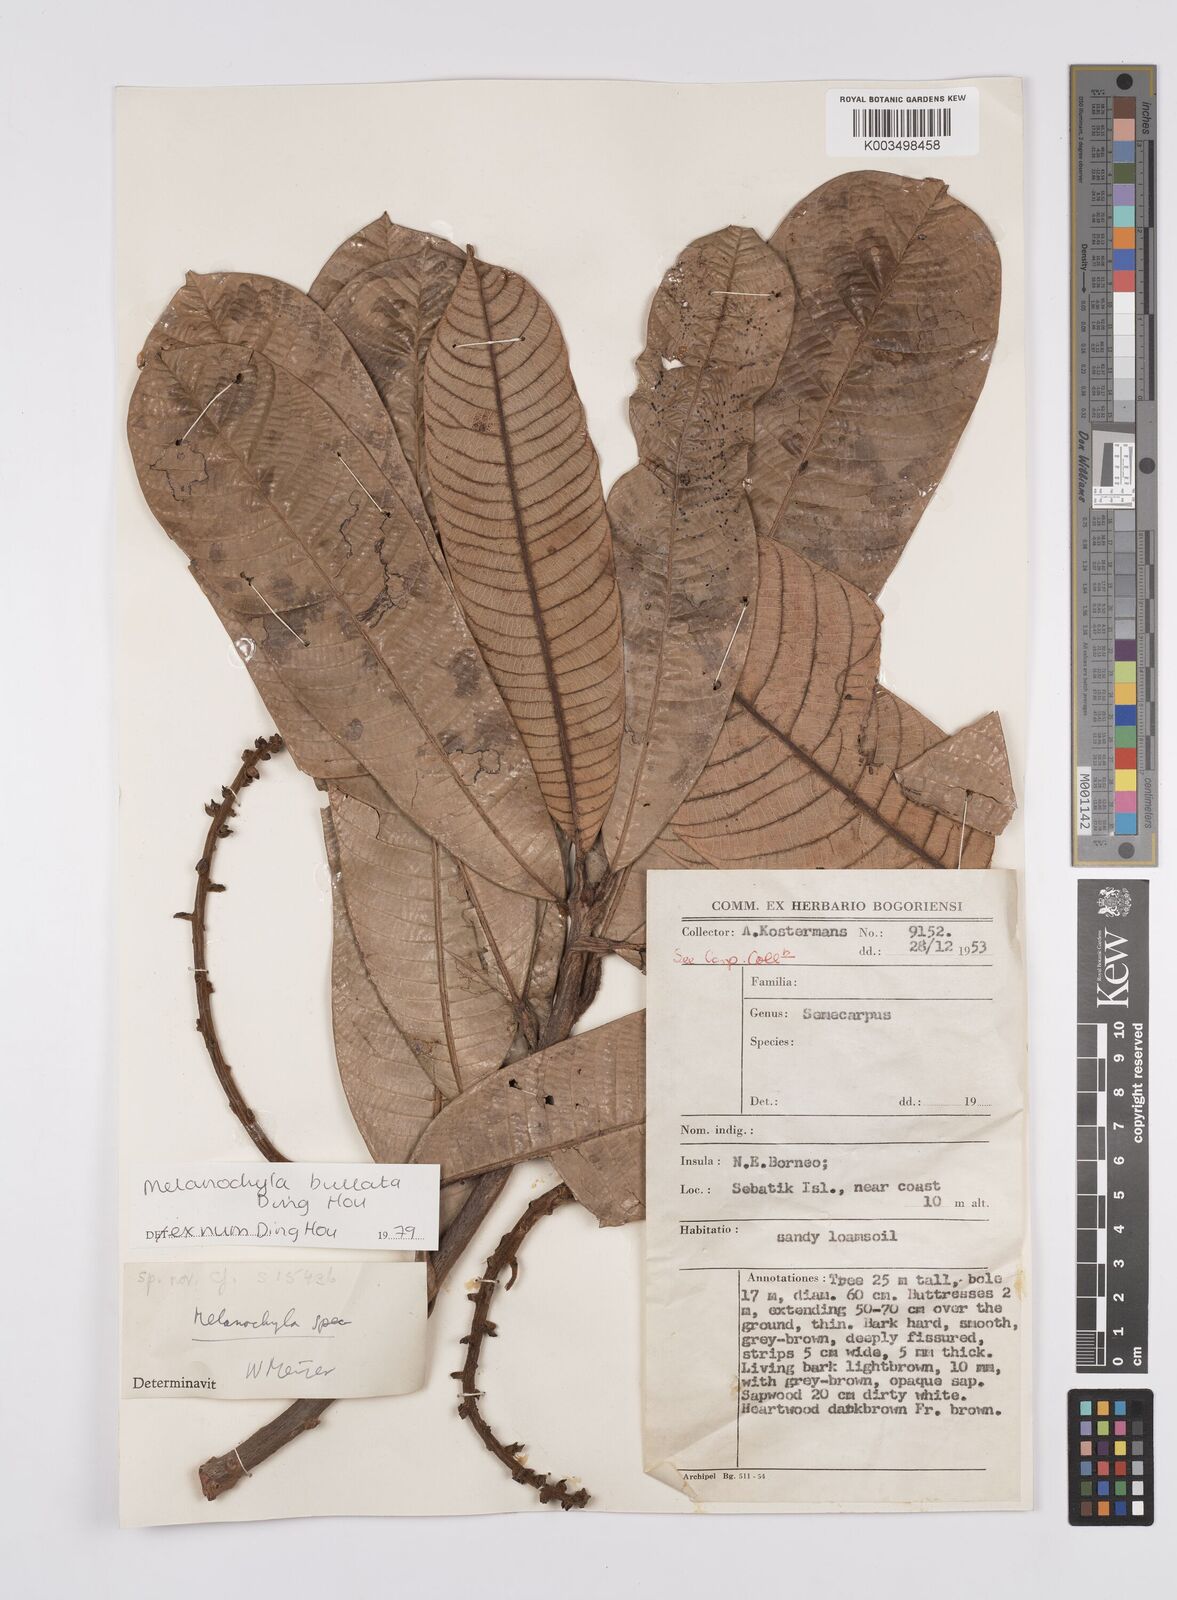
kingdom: Plantae
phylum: Tracheophyta
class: Magnoliopsida
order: Sapindales
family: Anacardiaceae
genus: Melanochyla
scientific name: Melanochyla bullata
